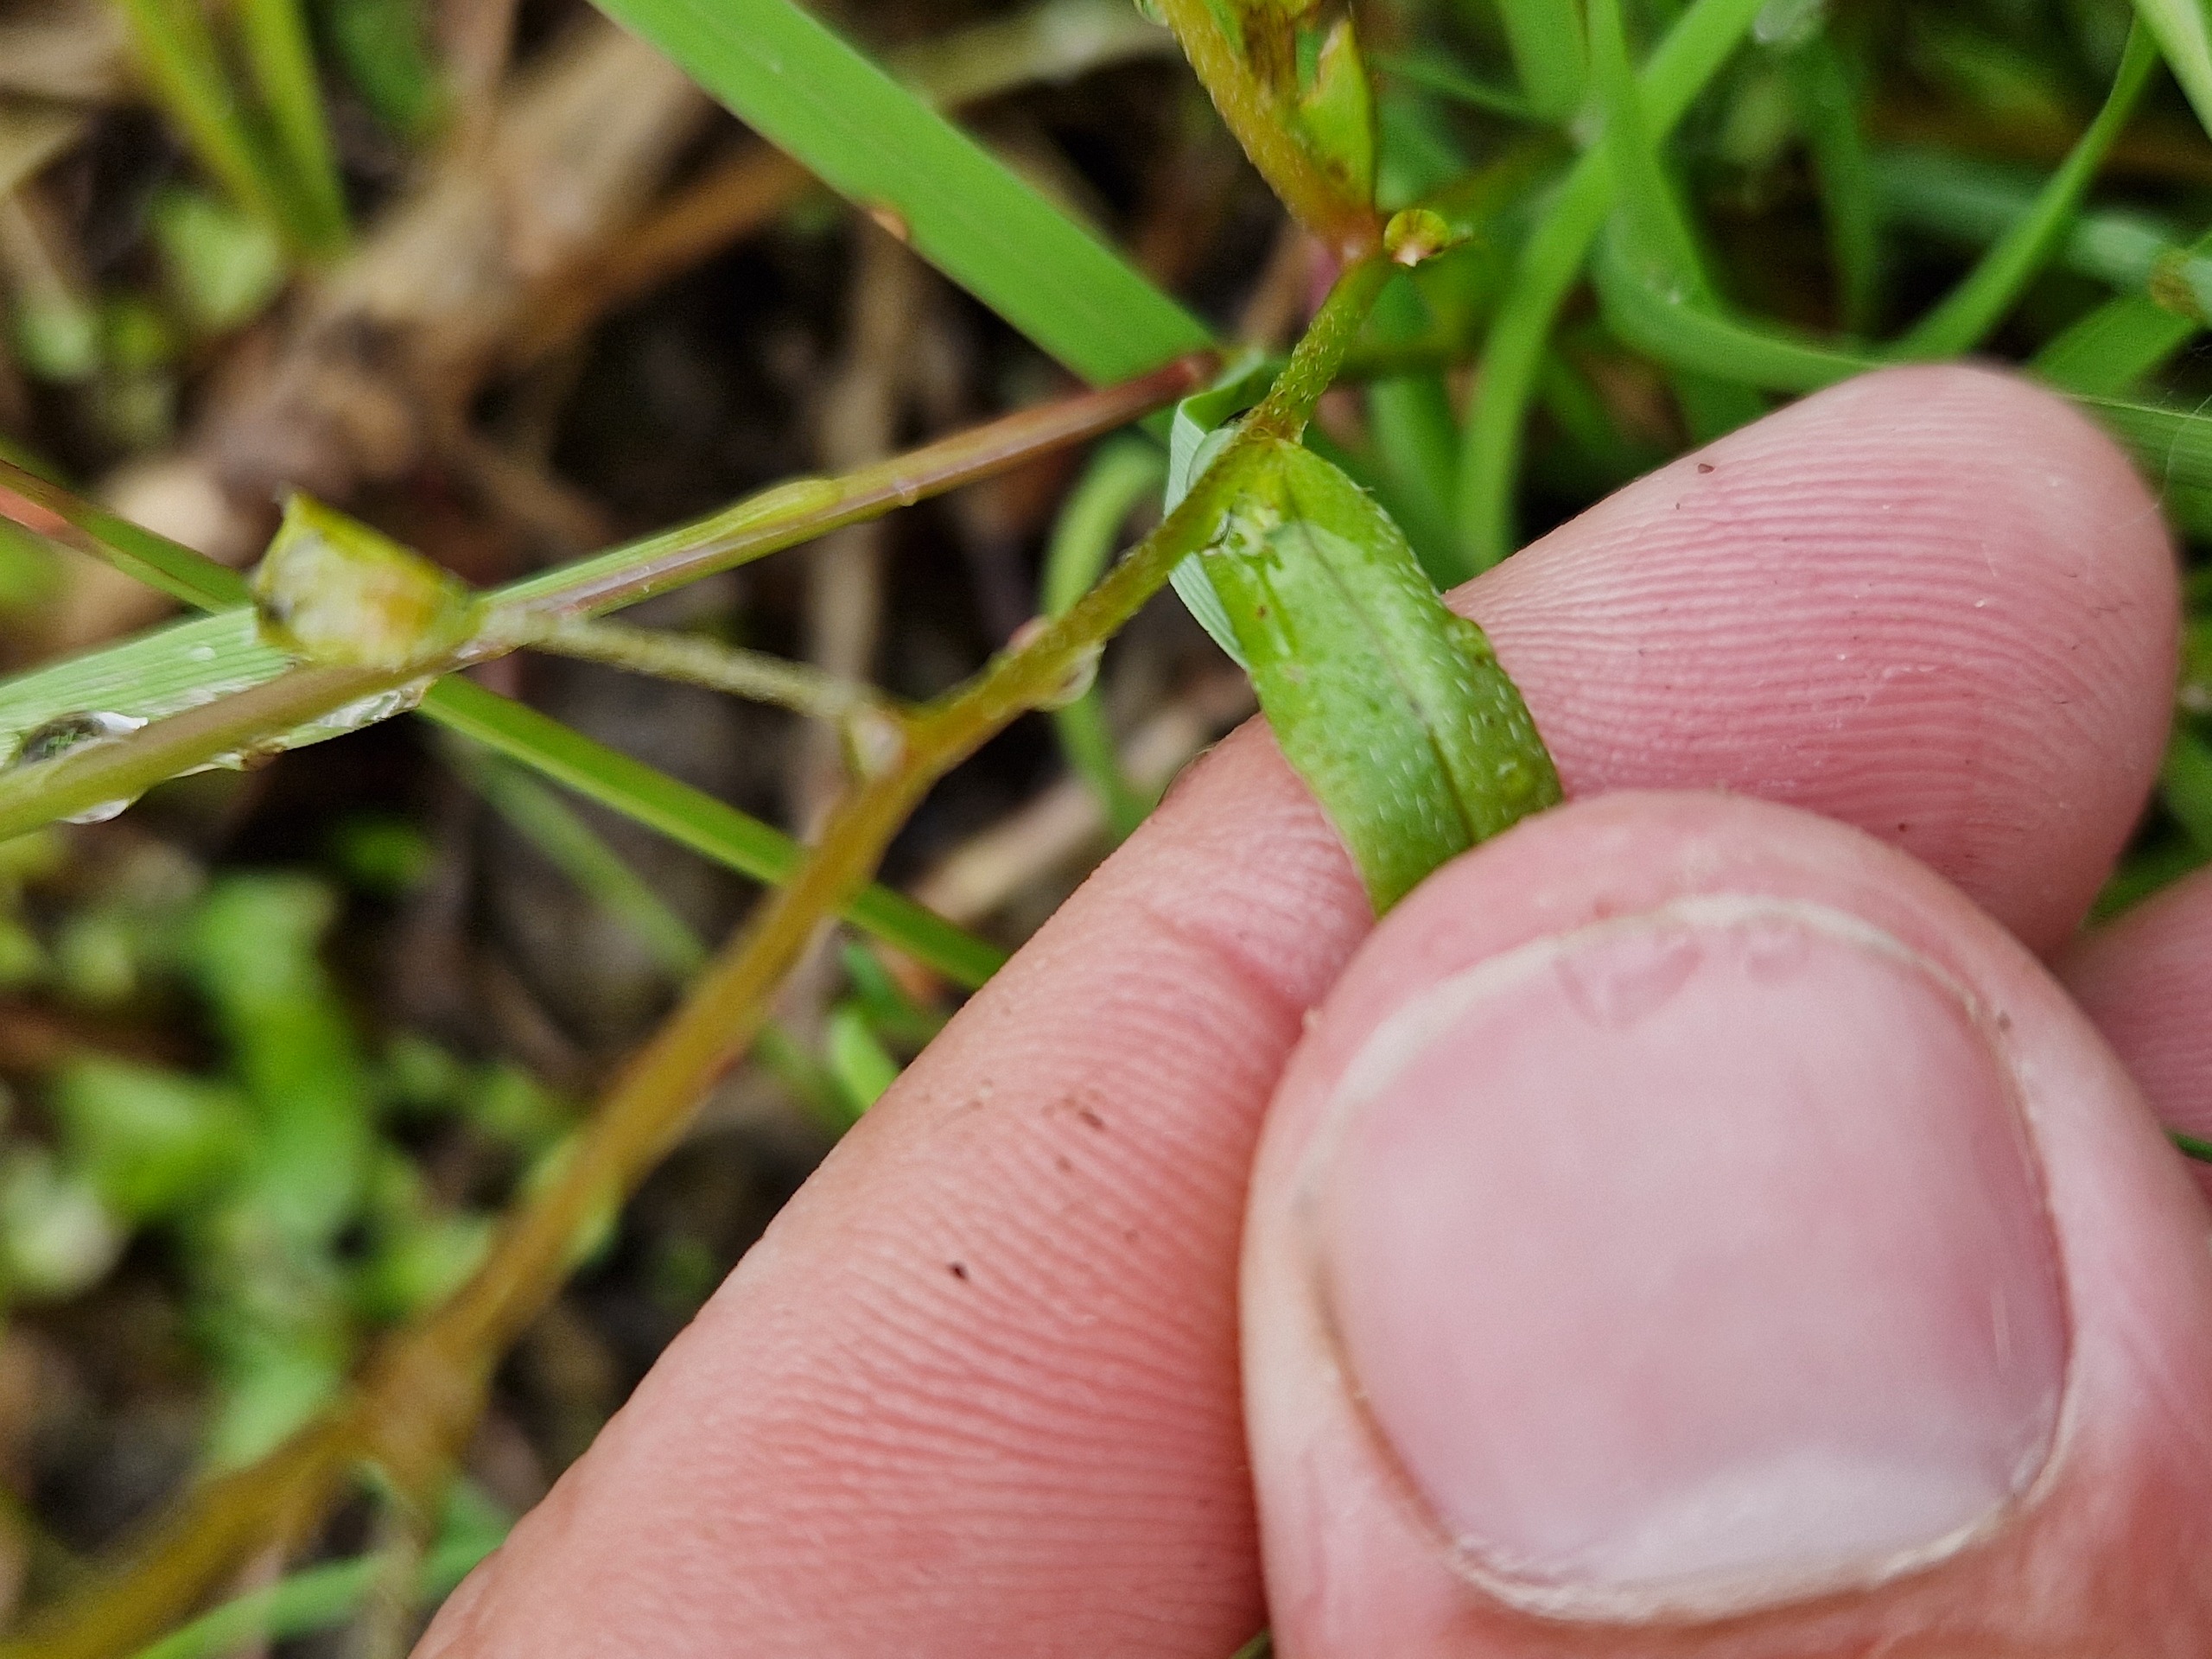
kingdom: Plantae
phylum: Tracheophyta
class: Magnoliopsida
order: Boraginales
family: Boraginaceae
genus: Myosotis
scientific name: Myosotis laxa
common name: Sump-forglemmigej
